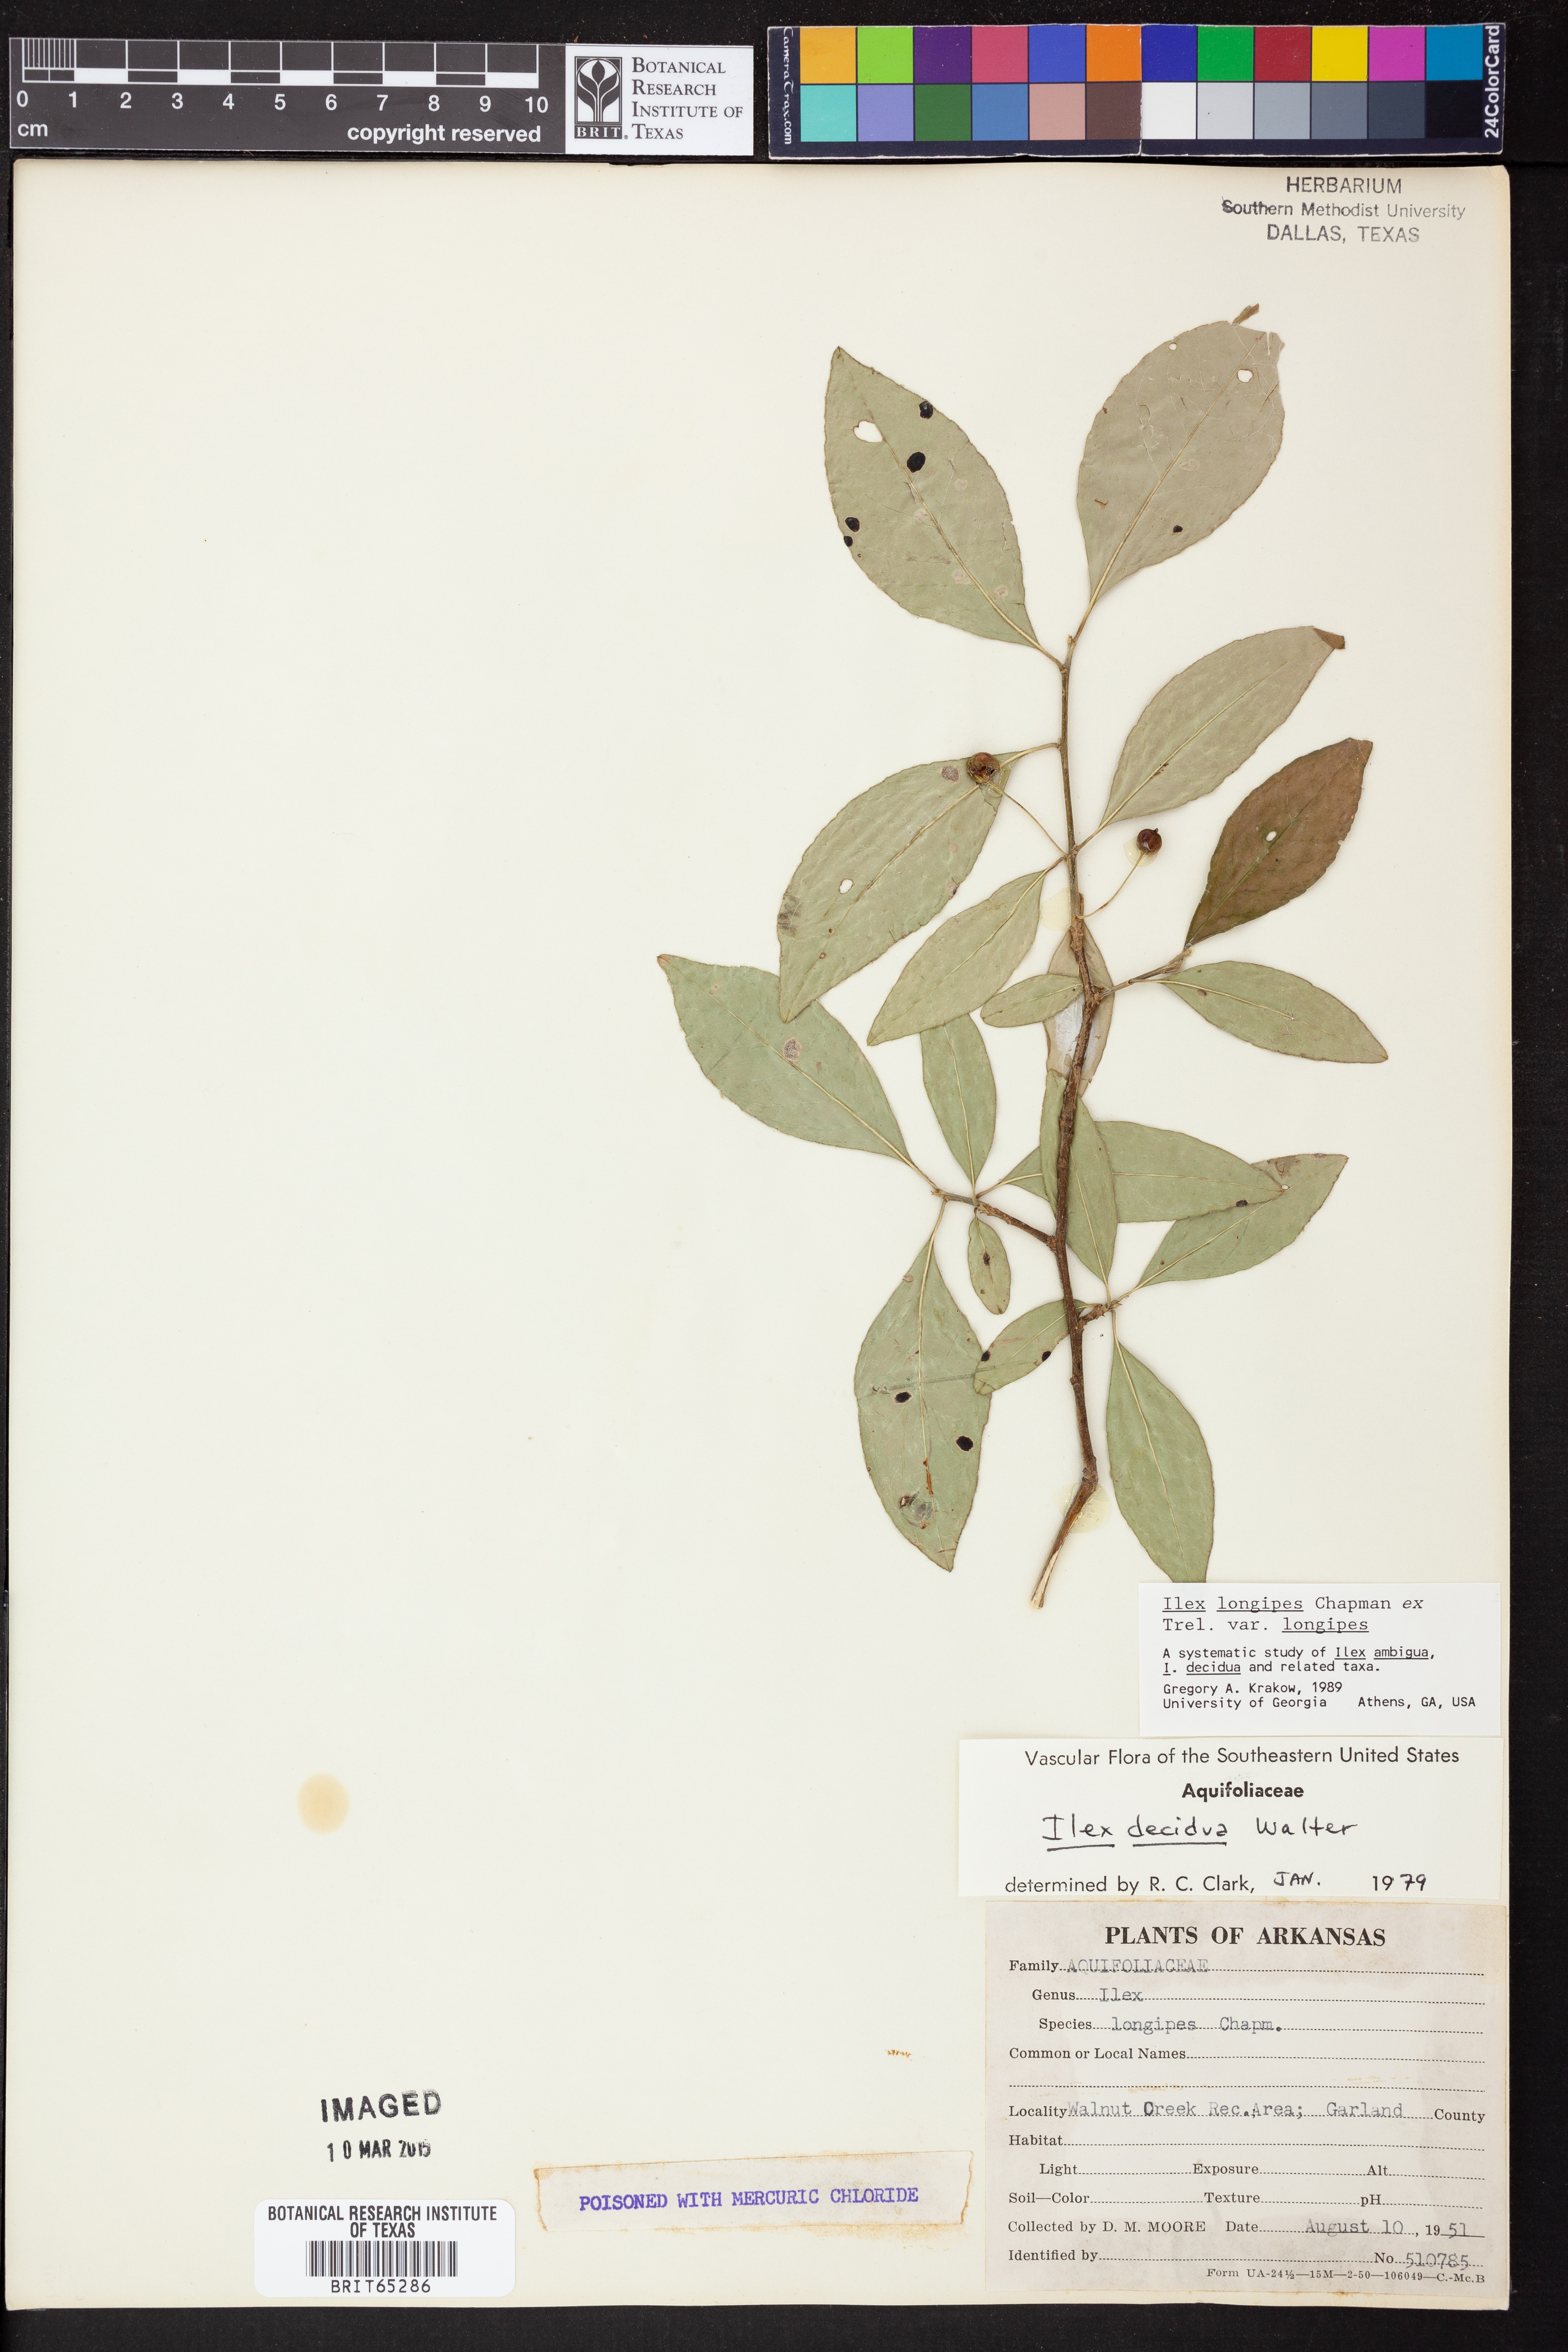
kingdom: Plantae
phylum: Tracheophyta
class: Magnoliopsida
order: Aquifoliales
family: Aquifoliaceae
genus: Ilex
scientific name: Ilex longipes
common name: Georgia holly
